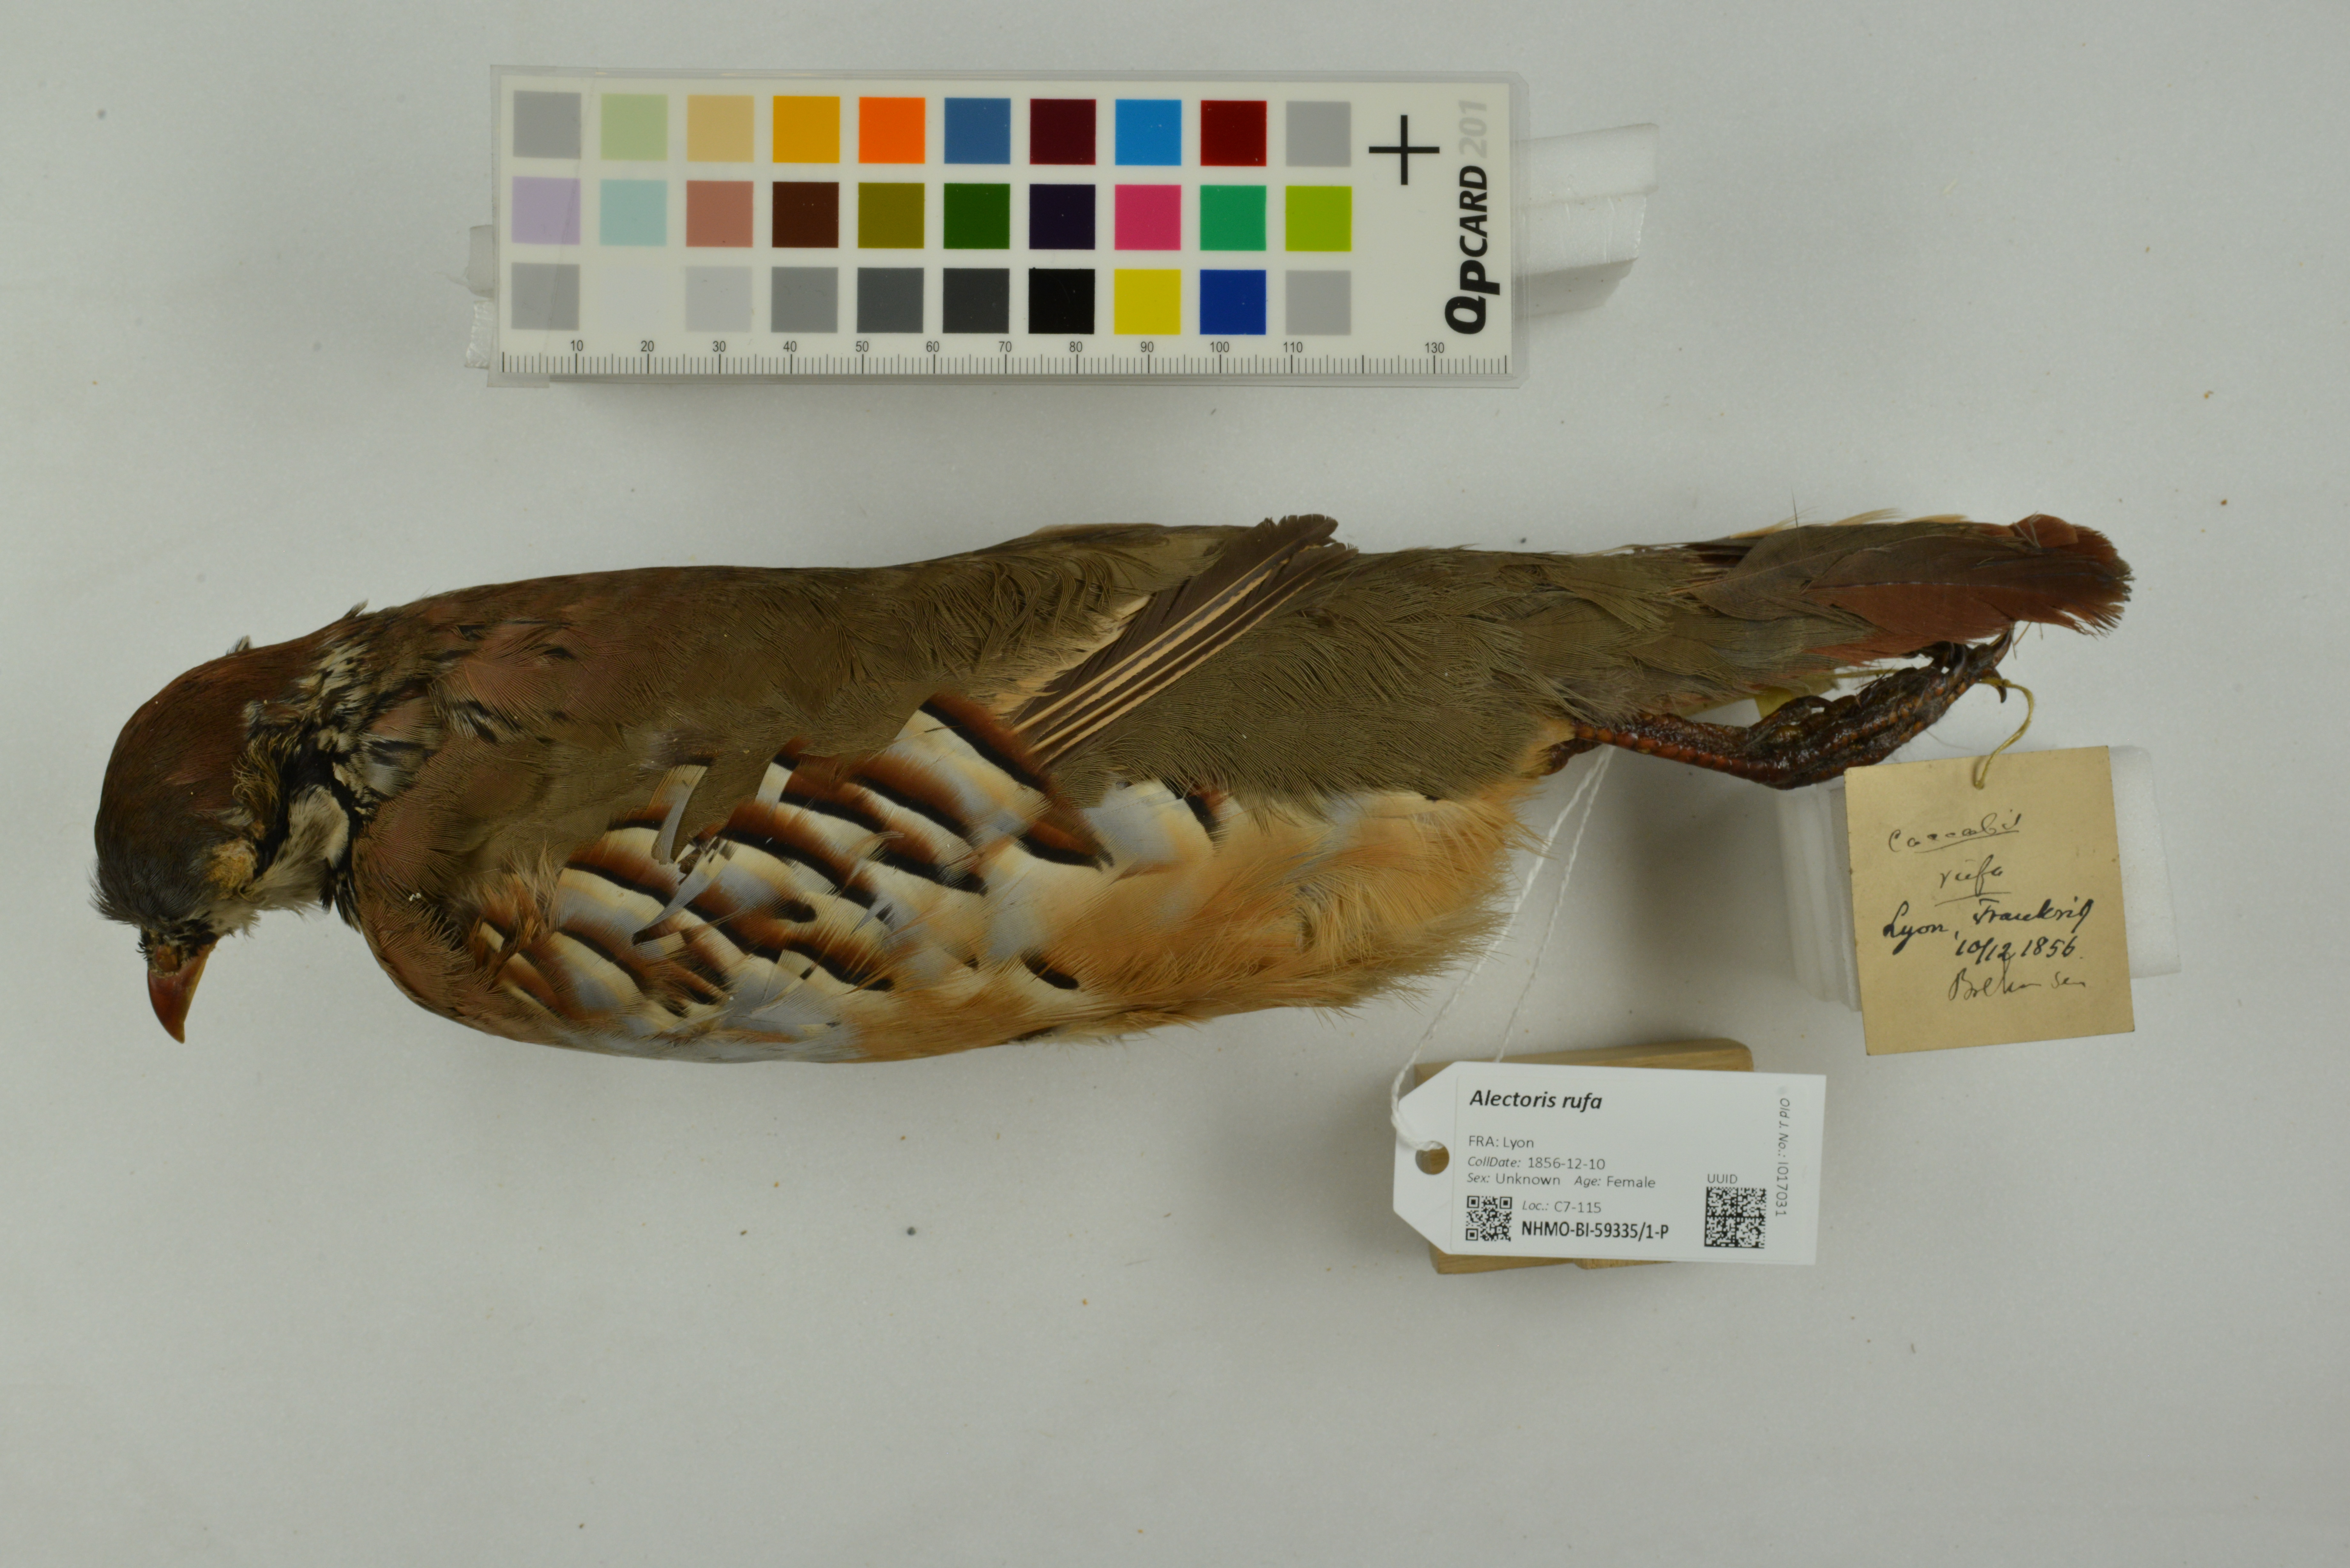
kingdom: Animalia
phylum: Chordata
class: Aves
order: Galliformes
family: Phasianidae
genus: Alectoris
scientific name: Alectoris rufa
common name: Red-legged partridge
